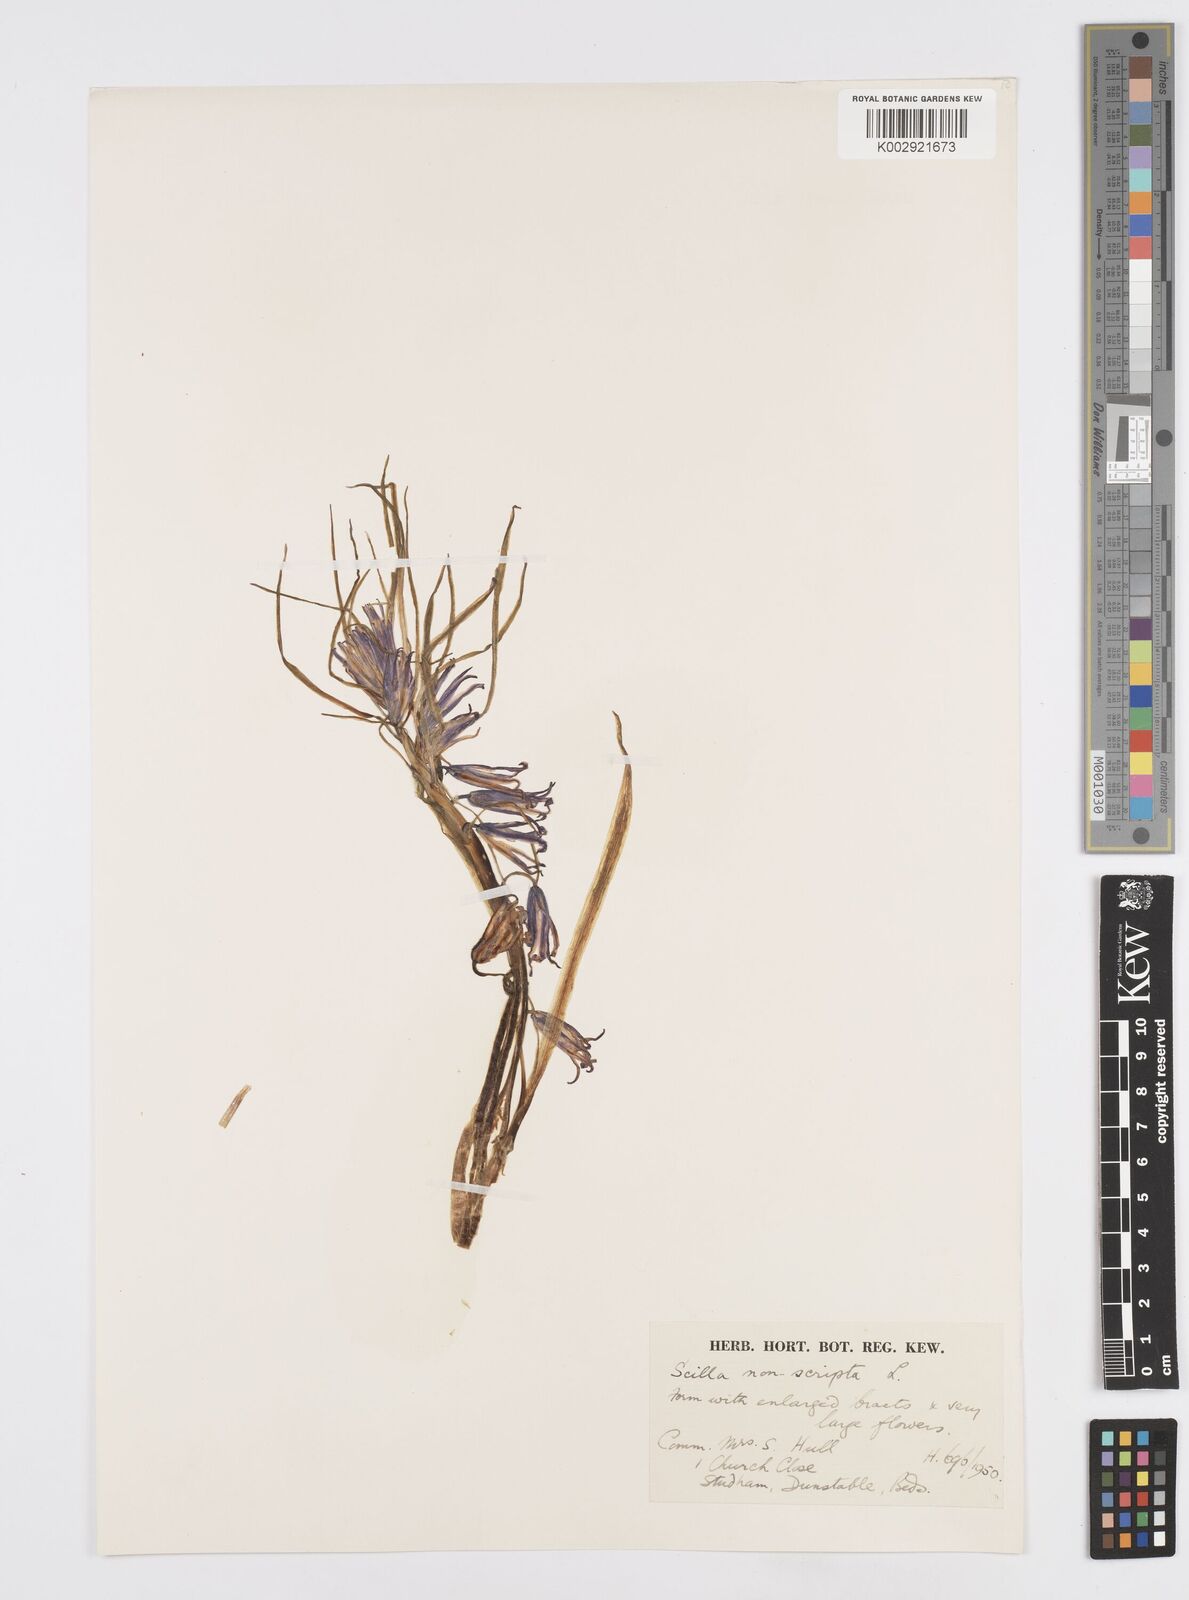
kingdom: Plantae
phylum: Tracheophyta
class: Liliopsida
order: Asparagales
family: Asparagaceae
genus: Hyacinthoides
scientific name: Hyacinthoides
